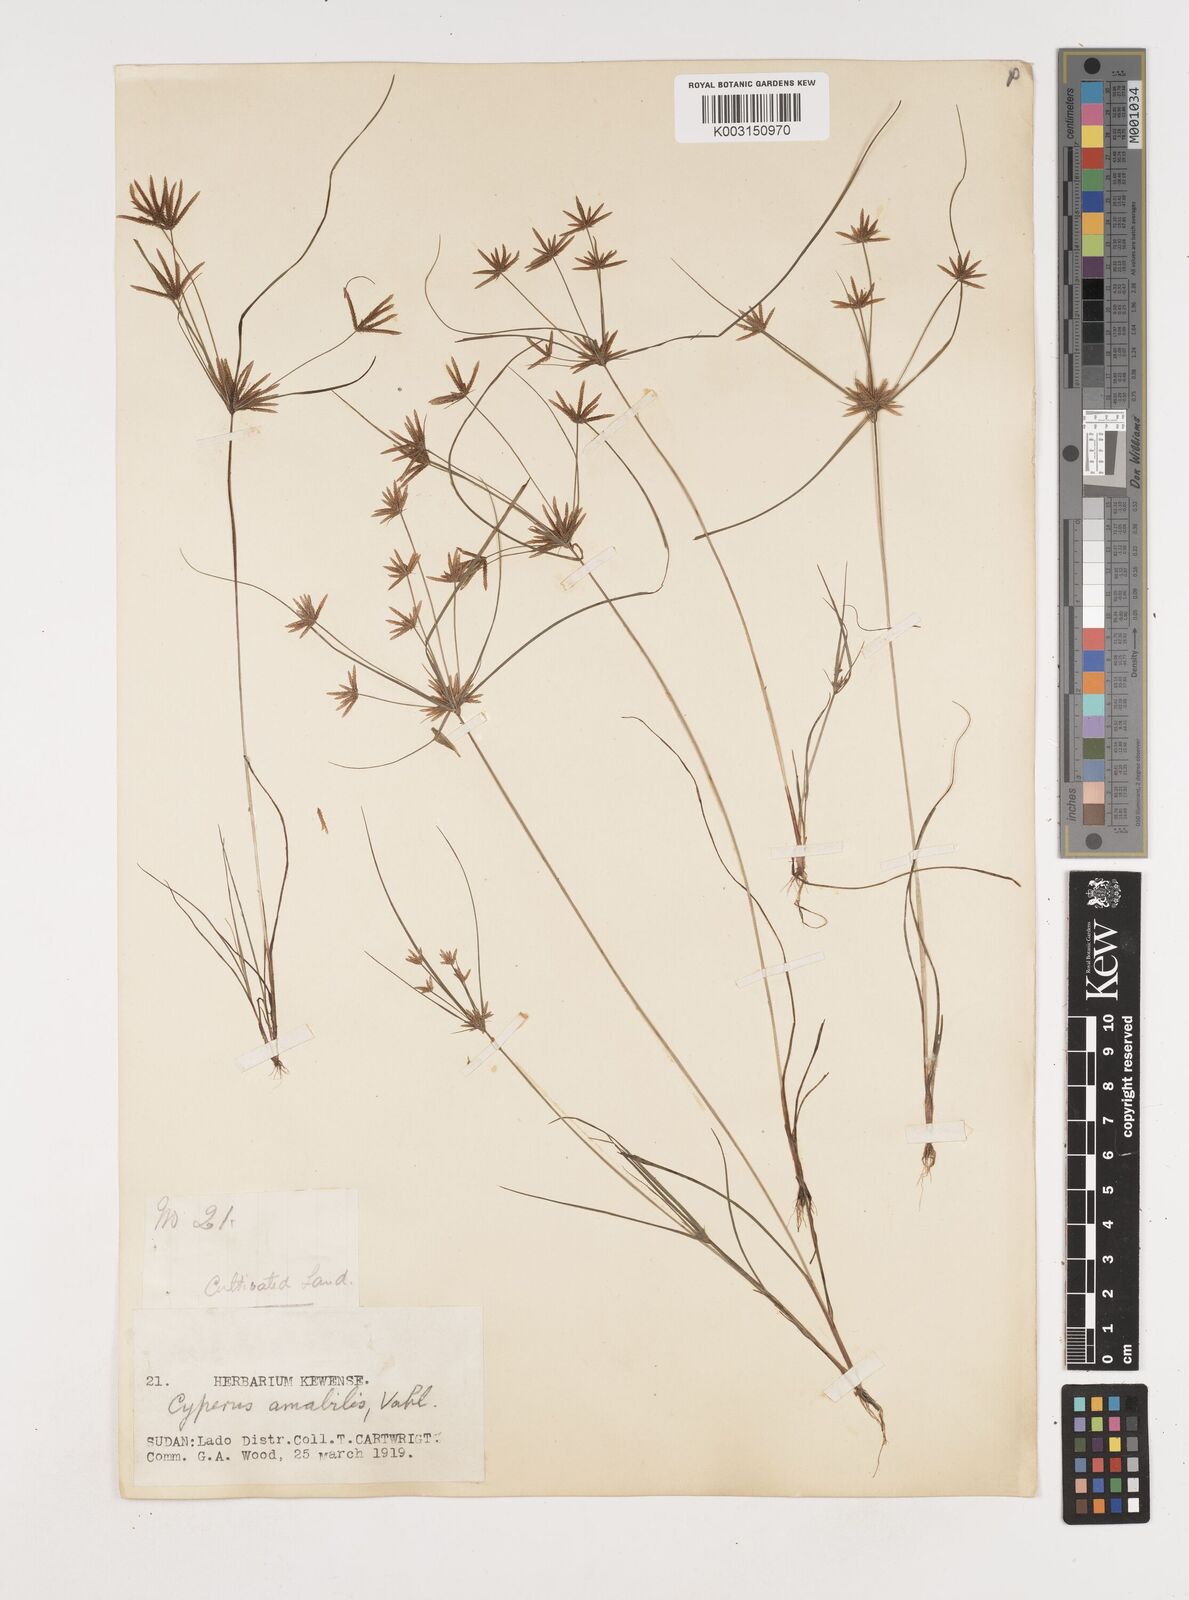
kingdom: Plantae
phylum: Tracheophyta
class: Liliopsida
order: Poales
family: Cyperaceae
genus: Cyperus
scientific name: Cyperus amabilis
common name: Foothill flat sedge
